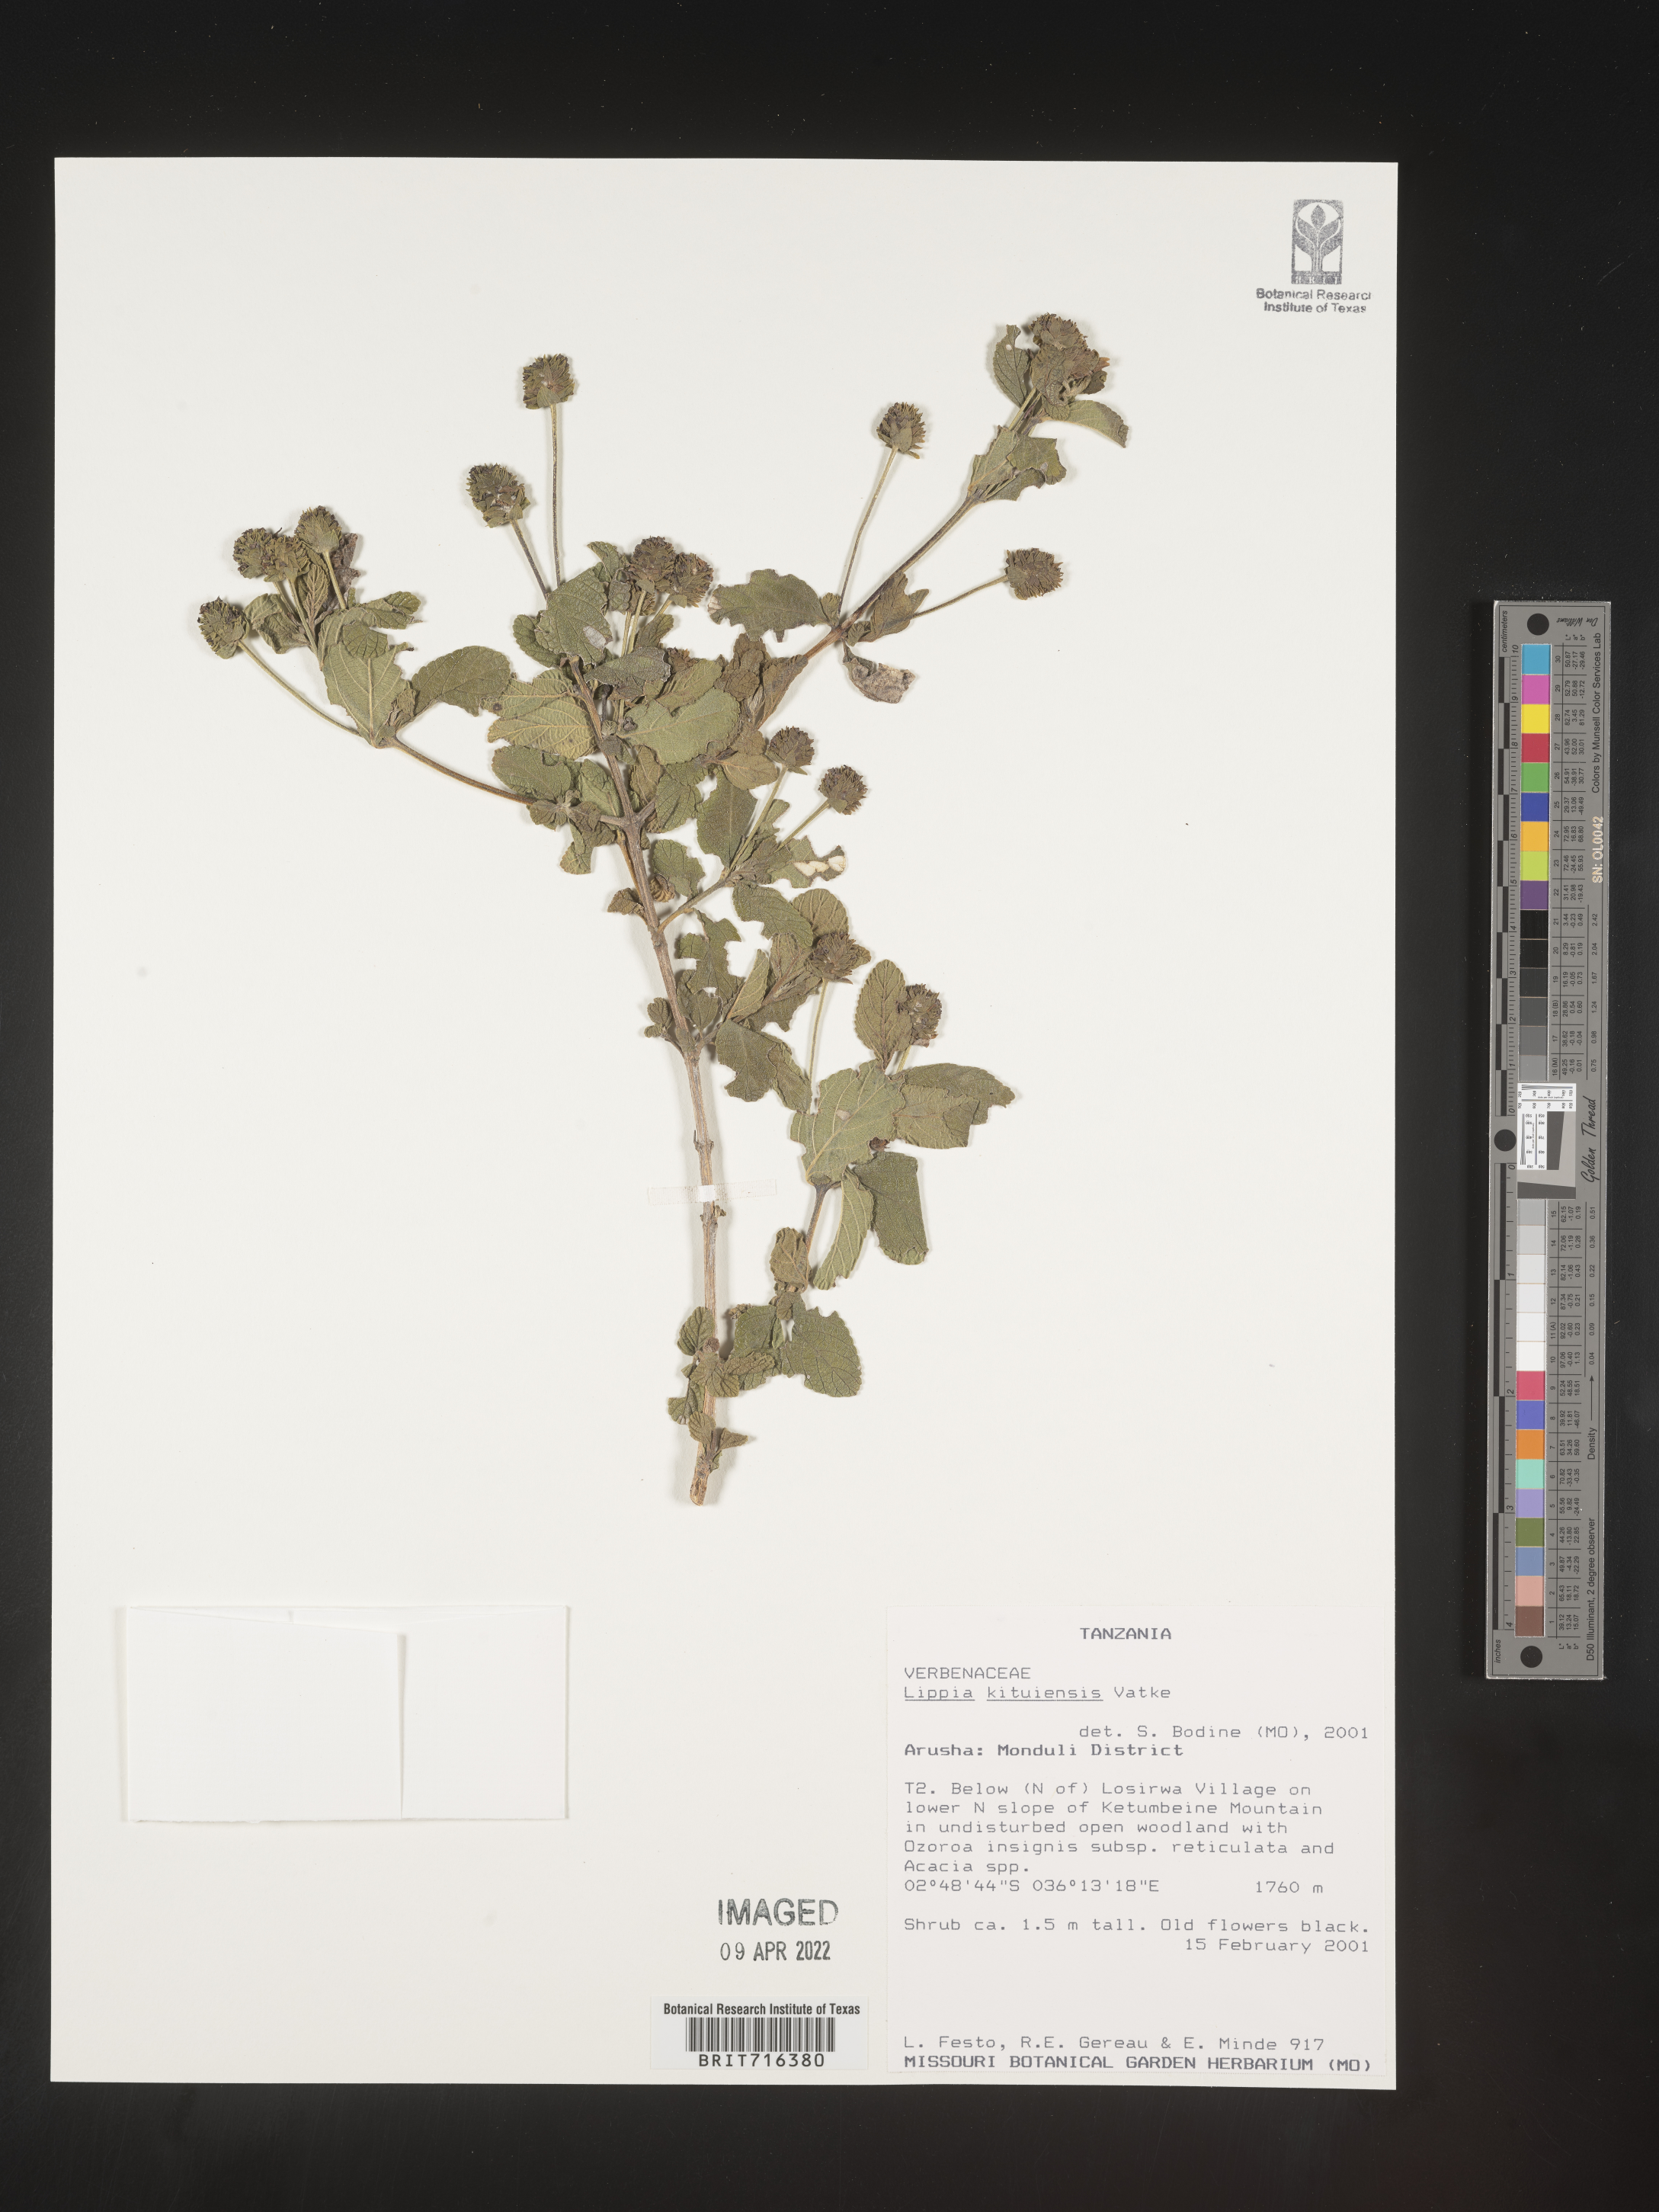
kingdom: Plantae
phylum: Tracheophyta
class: Magnoliopsida
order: Lamiales
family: Verbenaceae
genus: Lippia
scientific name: Lippia
